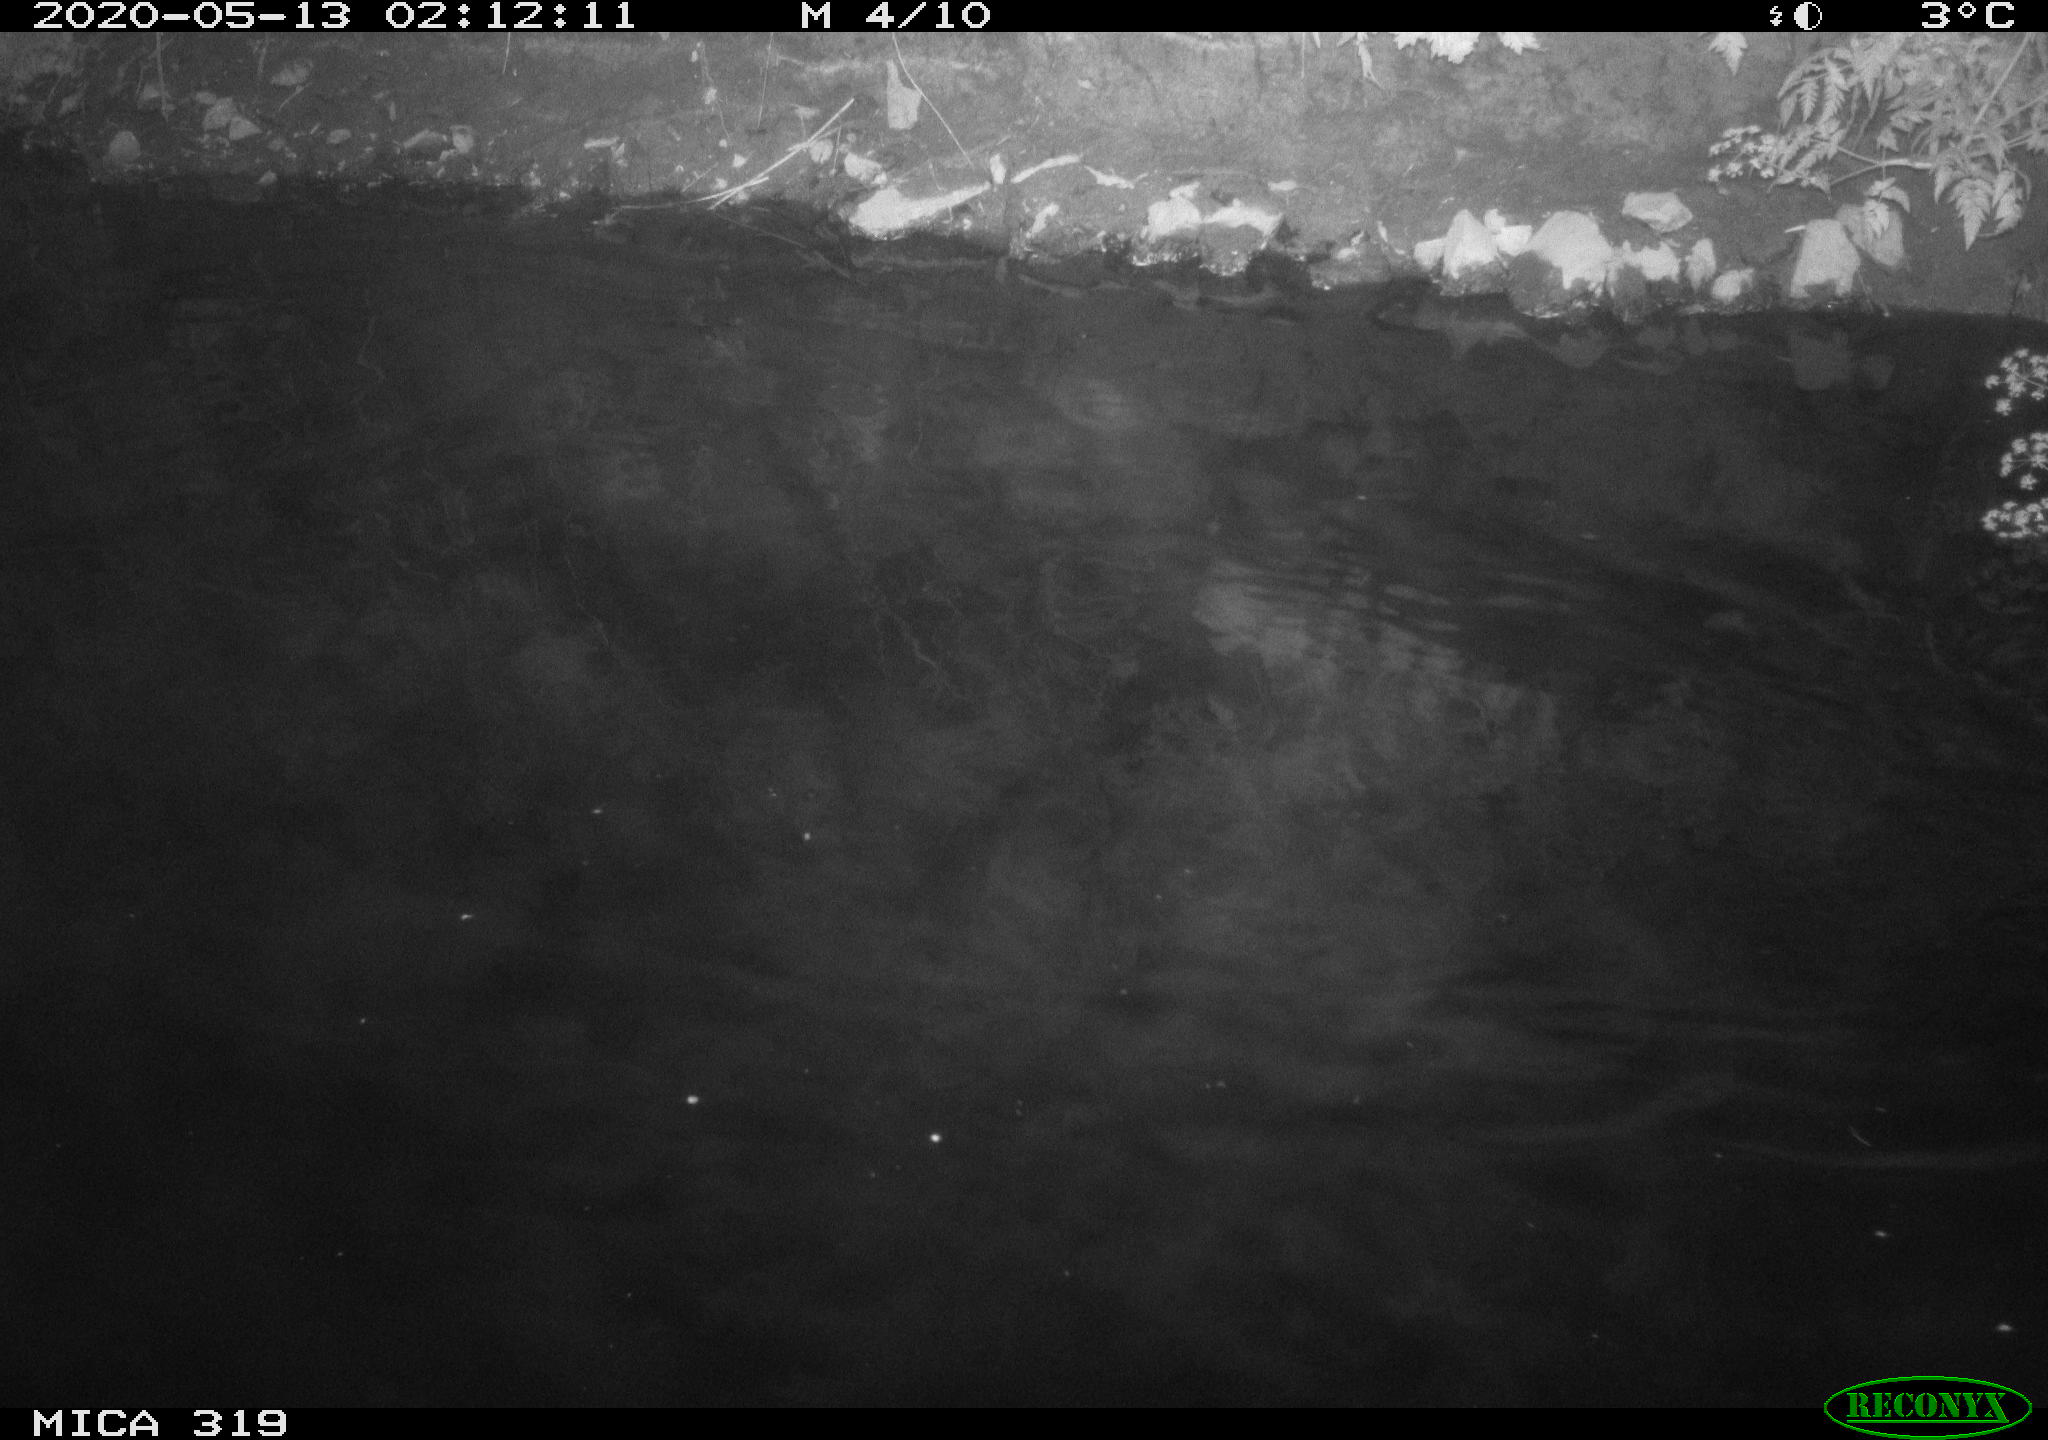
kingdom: Animalia
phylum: Chordata
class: Aves
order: Anseriformes
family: Anatidae
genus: Anas
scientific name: Anas platyrhynchos
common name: Mallard
